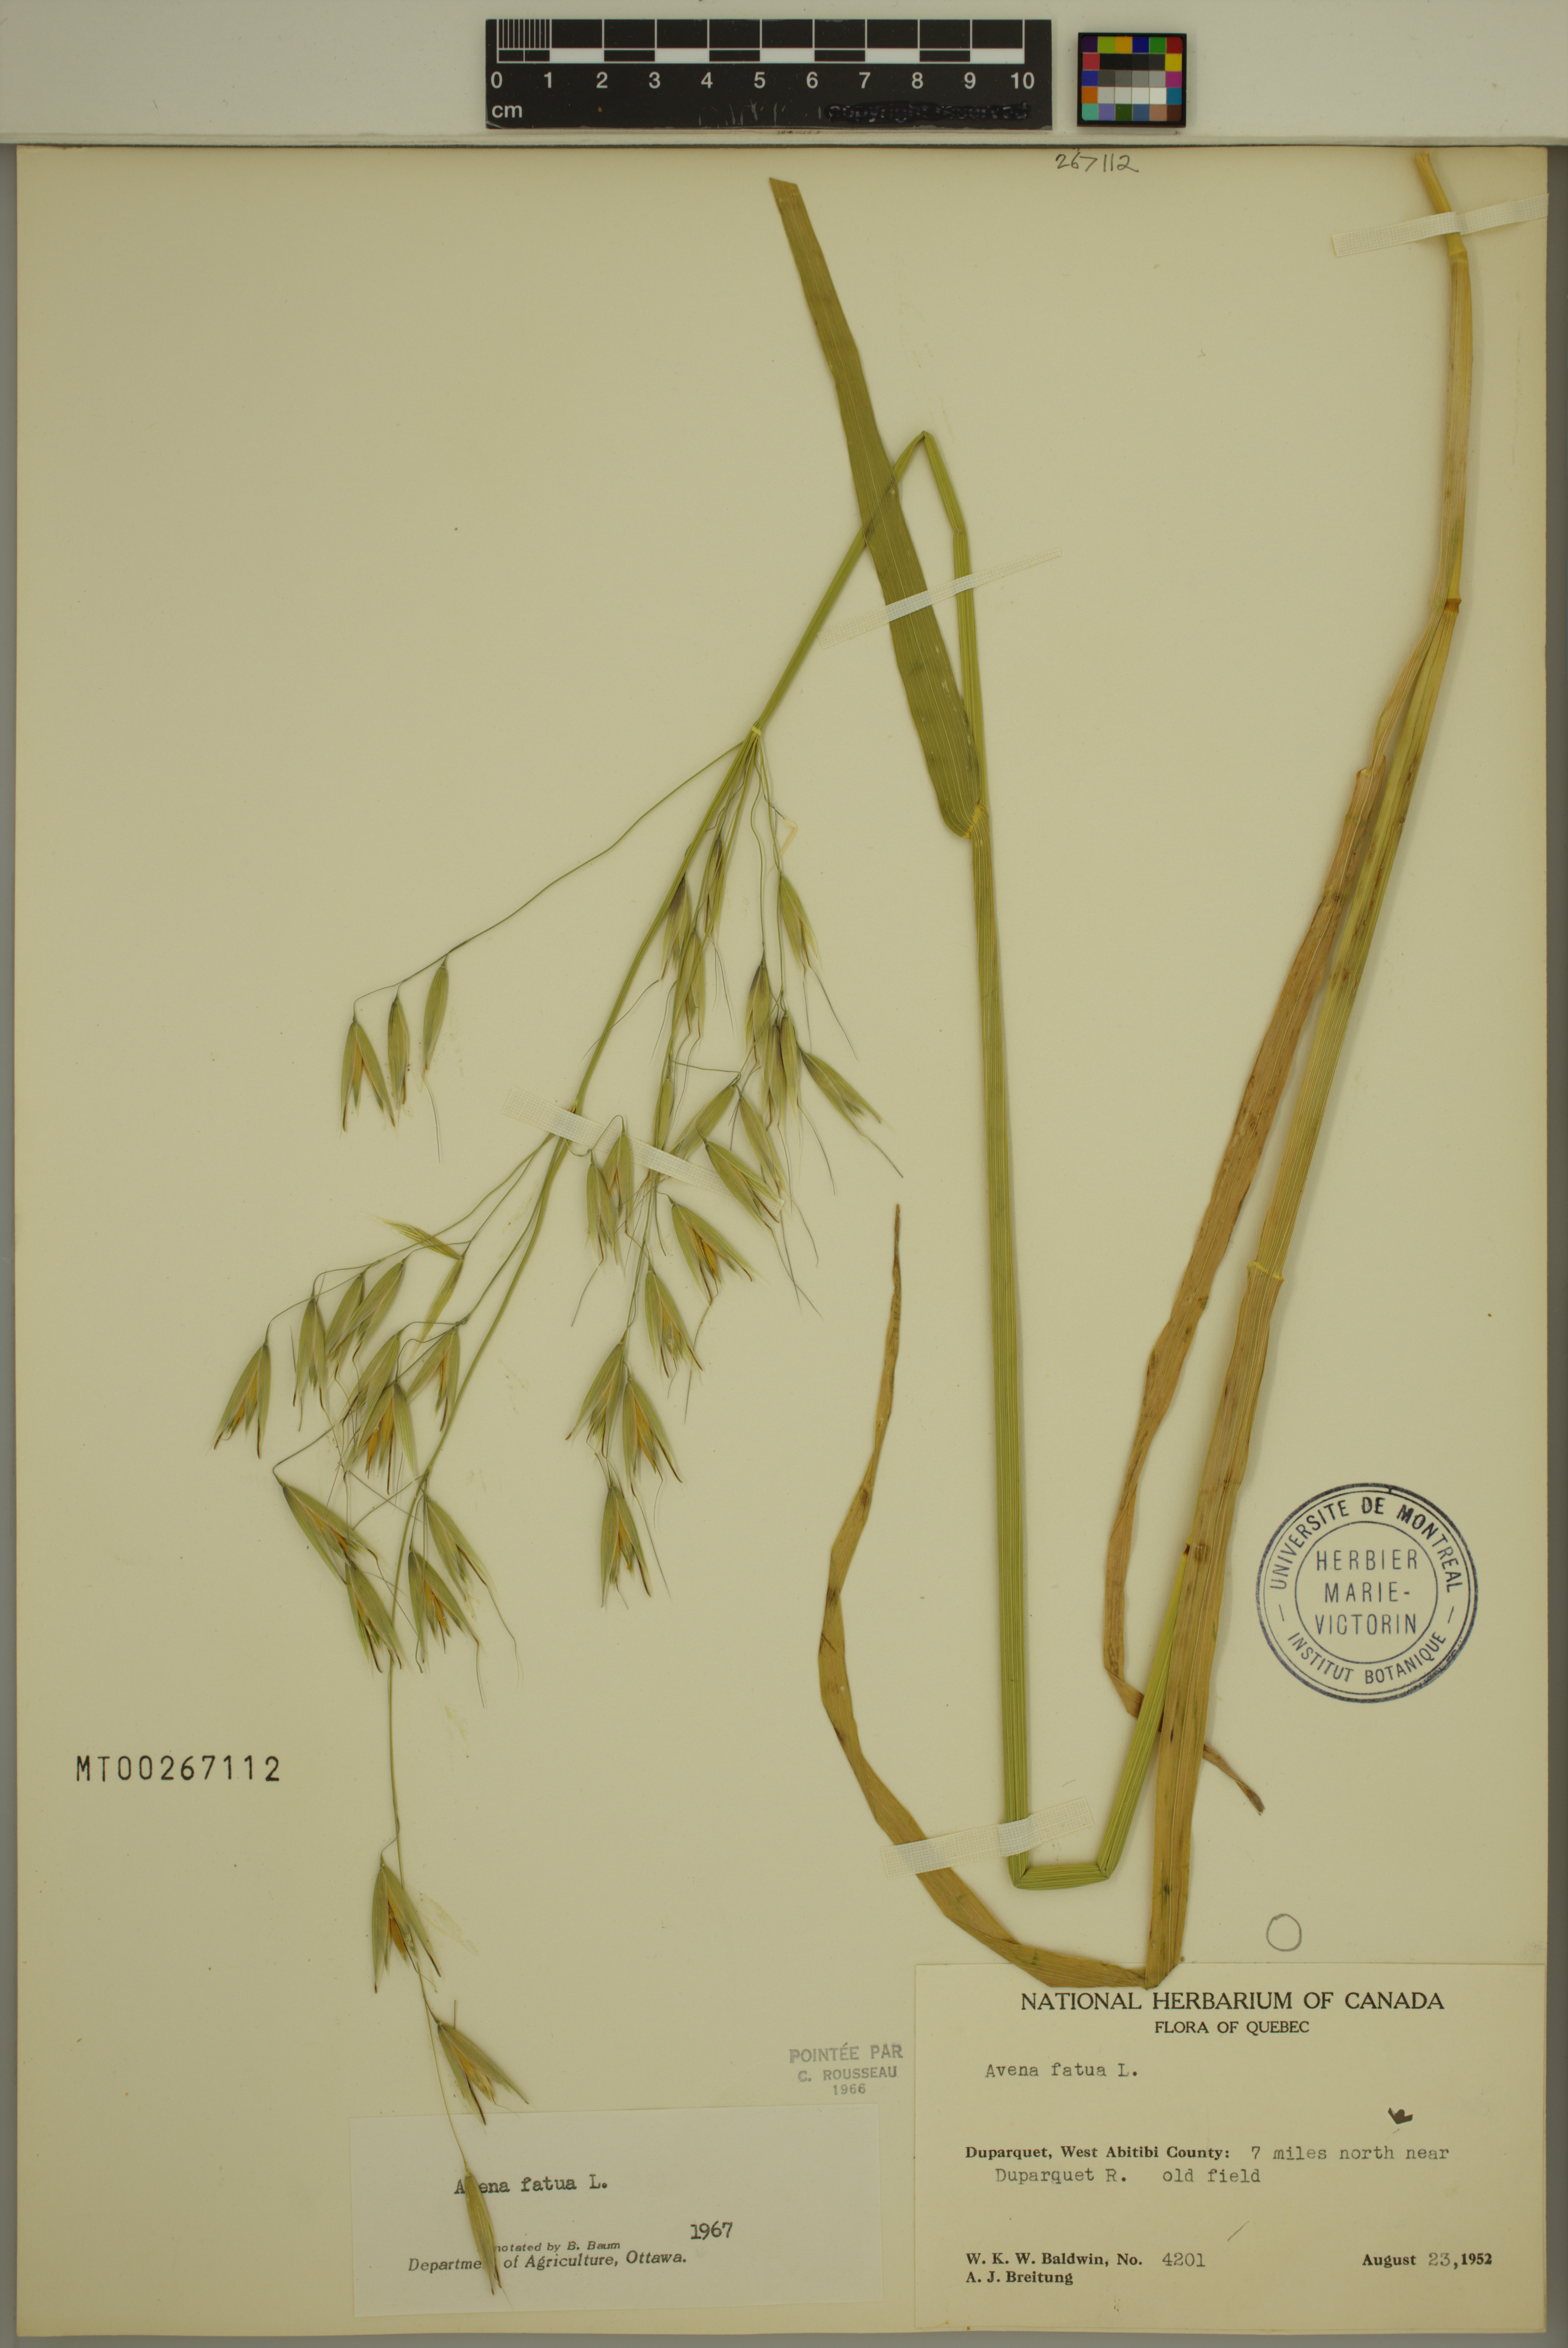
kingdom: Plantae
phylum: Tracheophyta
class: Liliopsida
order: Poales
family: Poaceae
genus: Avena
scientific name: Avena fatua
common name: Wild oat
